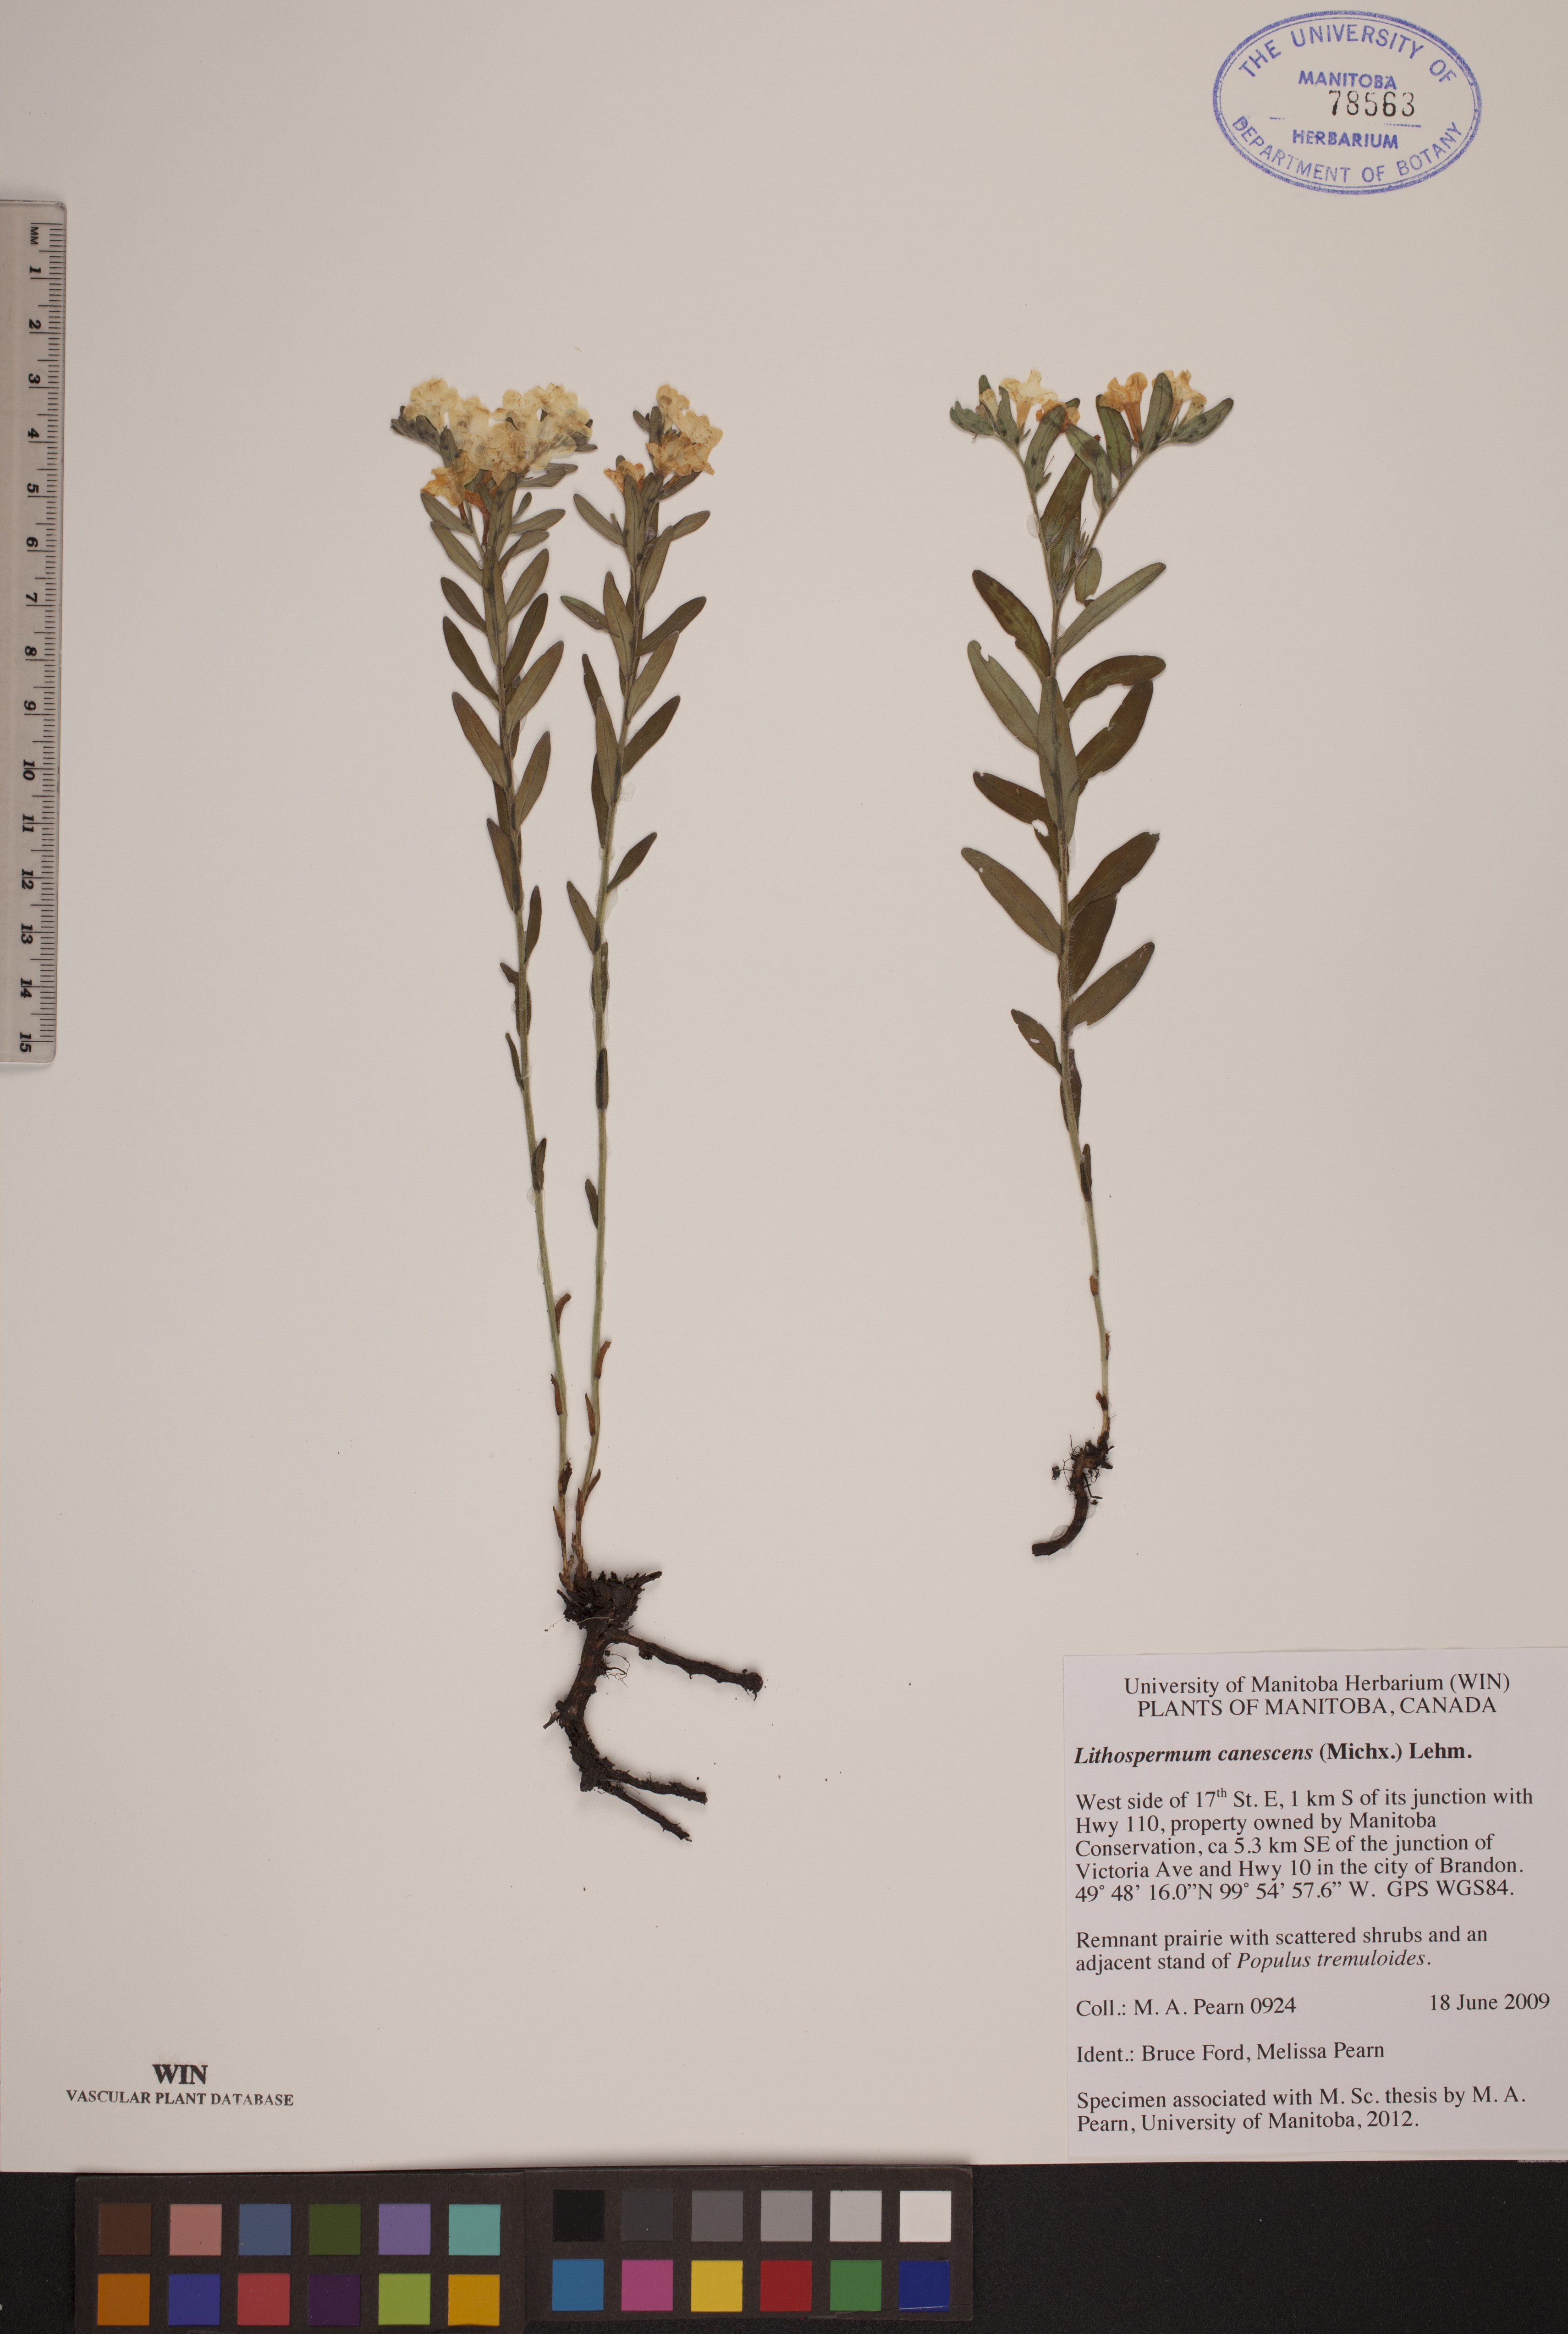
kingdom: Plantae
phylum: Tracheophyta
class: Magnoliopsida
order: Boraginales
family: Boraginaceae
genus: Lithospermum
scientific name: Lithospermum canescens
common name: Hoary puccoon
